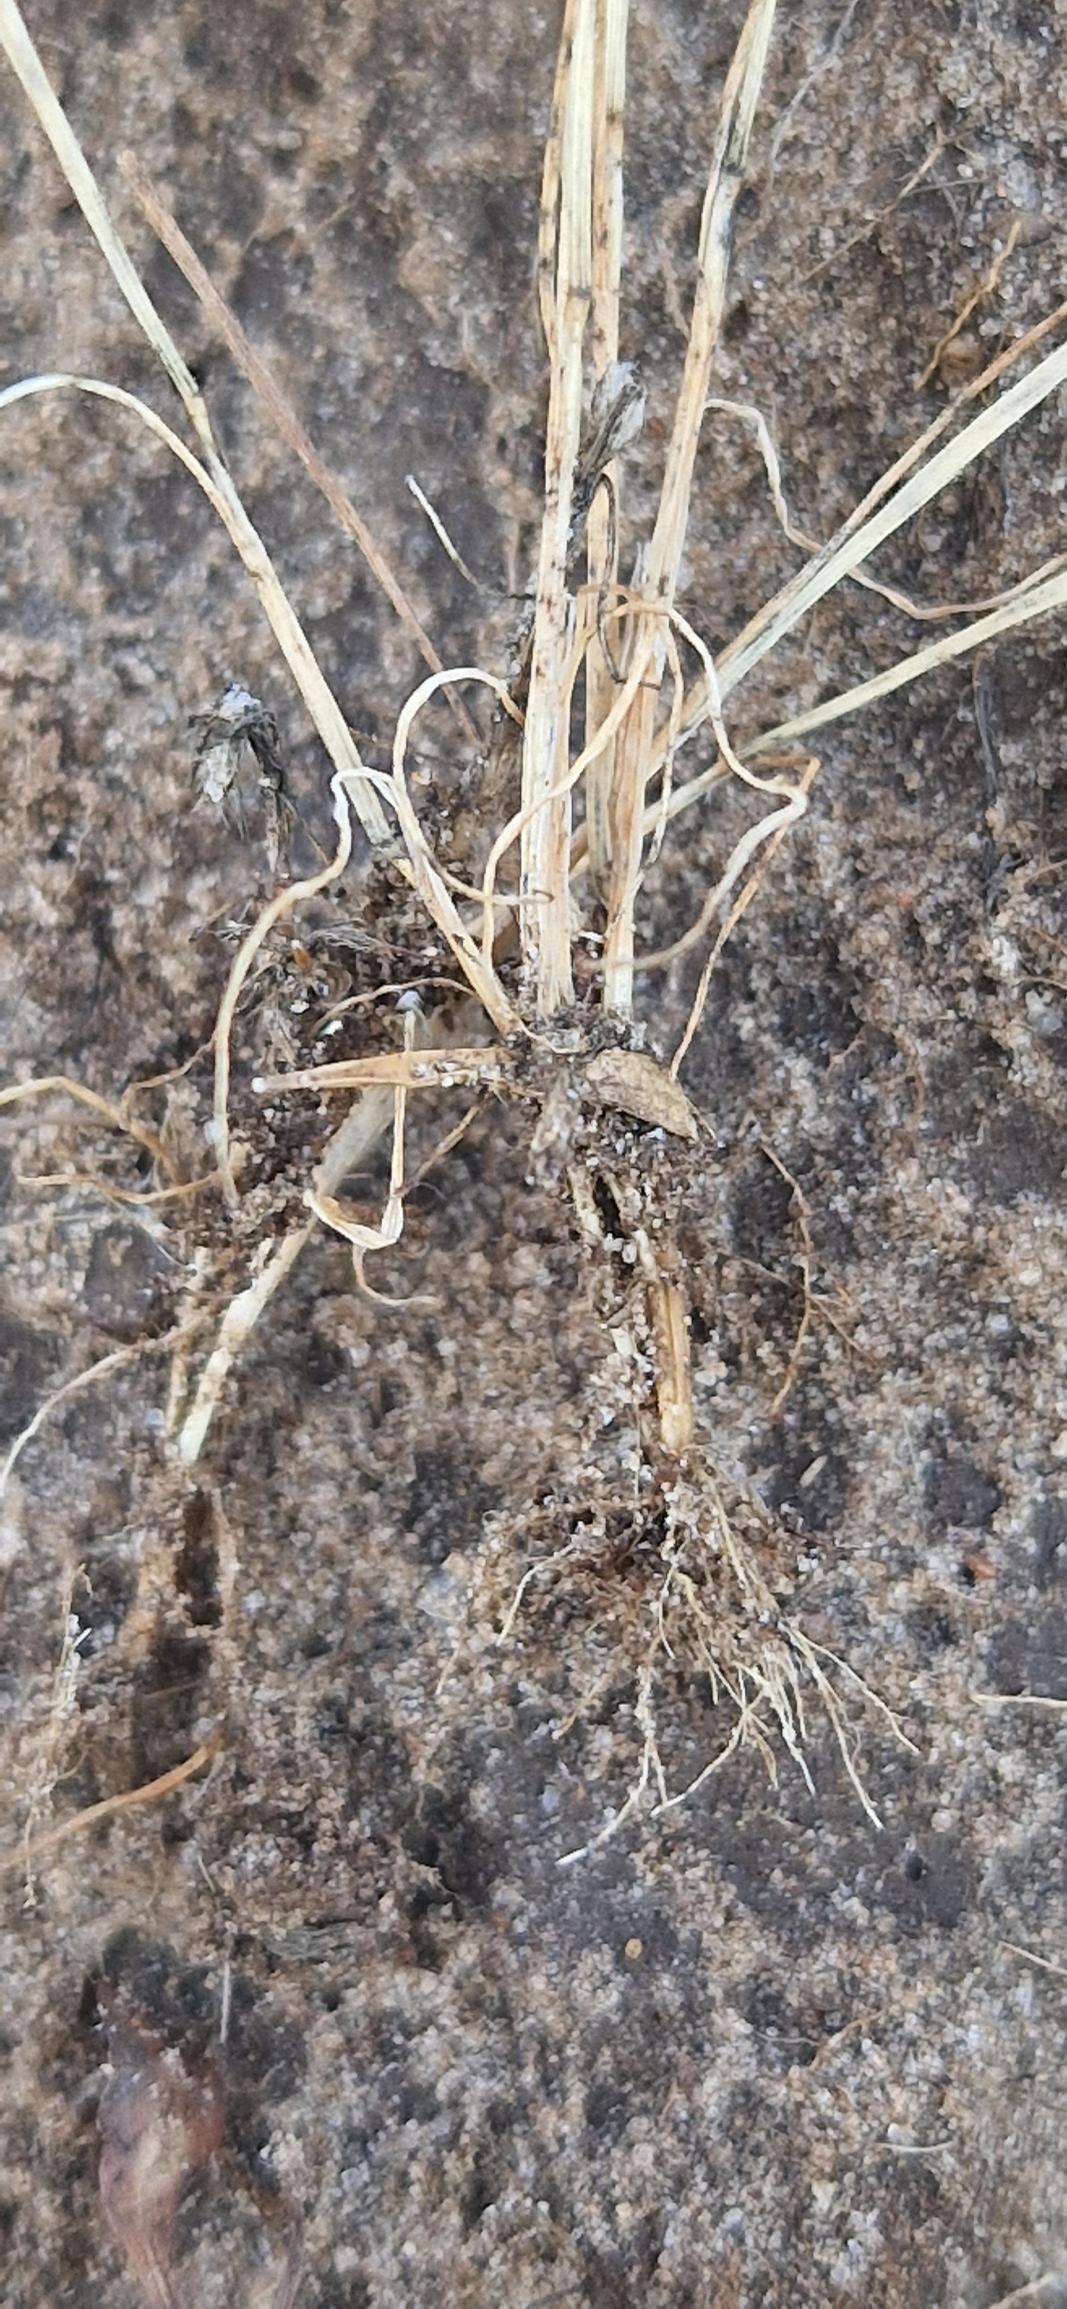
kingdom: Plantae
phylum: Tracheophyta
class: Liliopsida
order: Poales
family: Poaceae
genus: Aira
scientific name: Aira caryophyllea
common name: Udspærret dværgbunke
